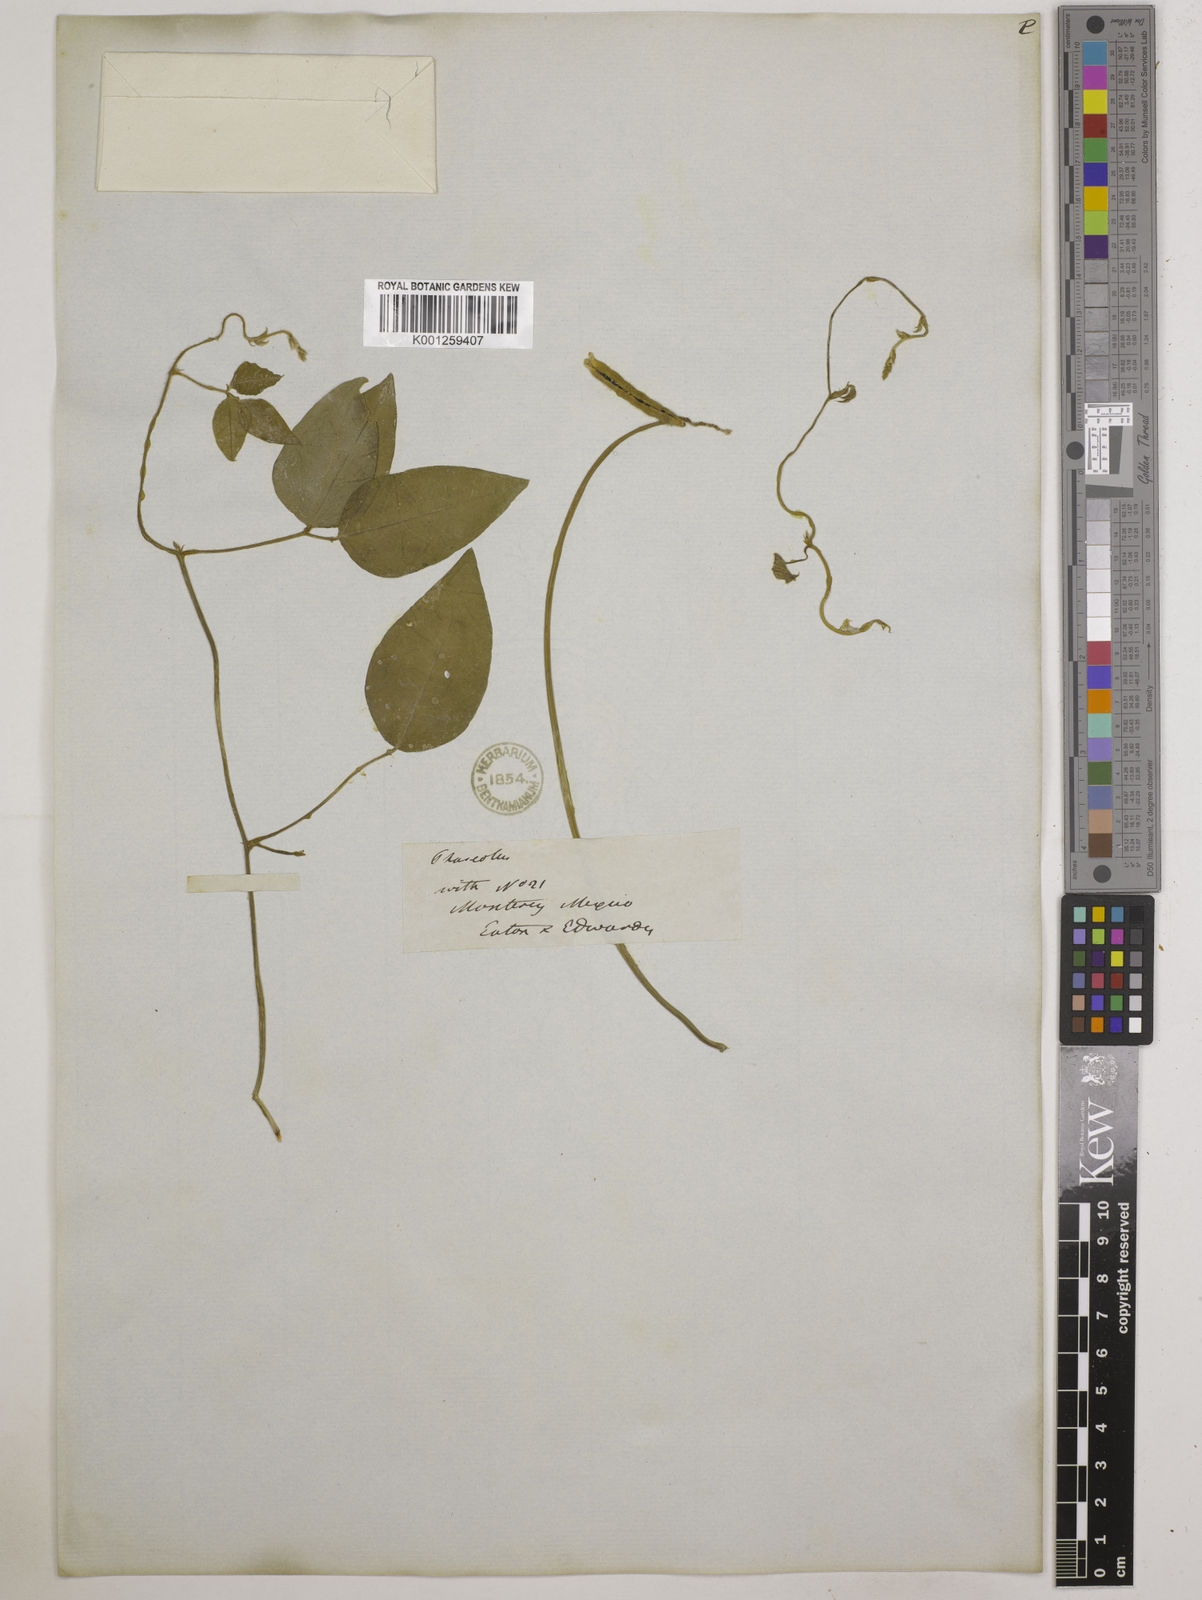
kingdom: Plantae
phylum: Tracheophyta
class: Magnoliopsida
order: Fabales
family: Fabaceae
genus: Vigna
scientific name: Vigna luteola
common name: Hairypod cowpea
